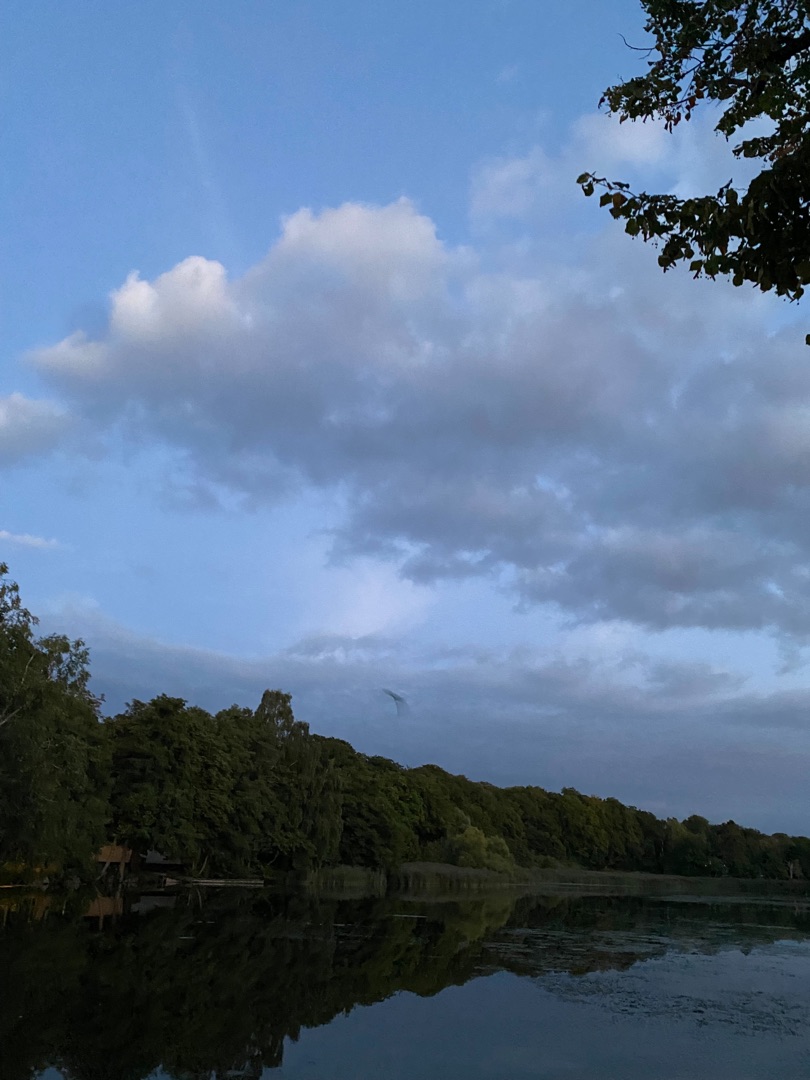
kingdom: Animalia
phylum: Chordata
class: Mammalia
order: Chiroptera
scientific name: Chiroptera
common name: Flagermus
